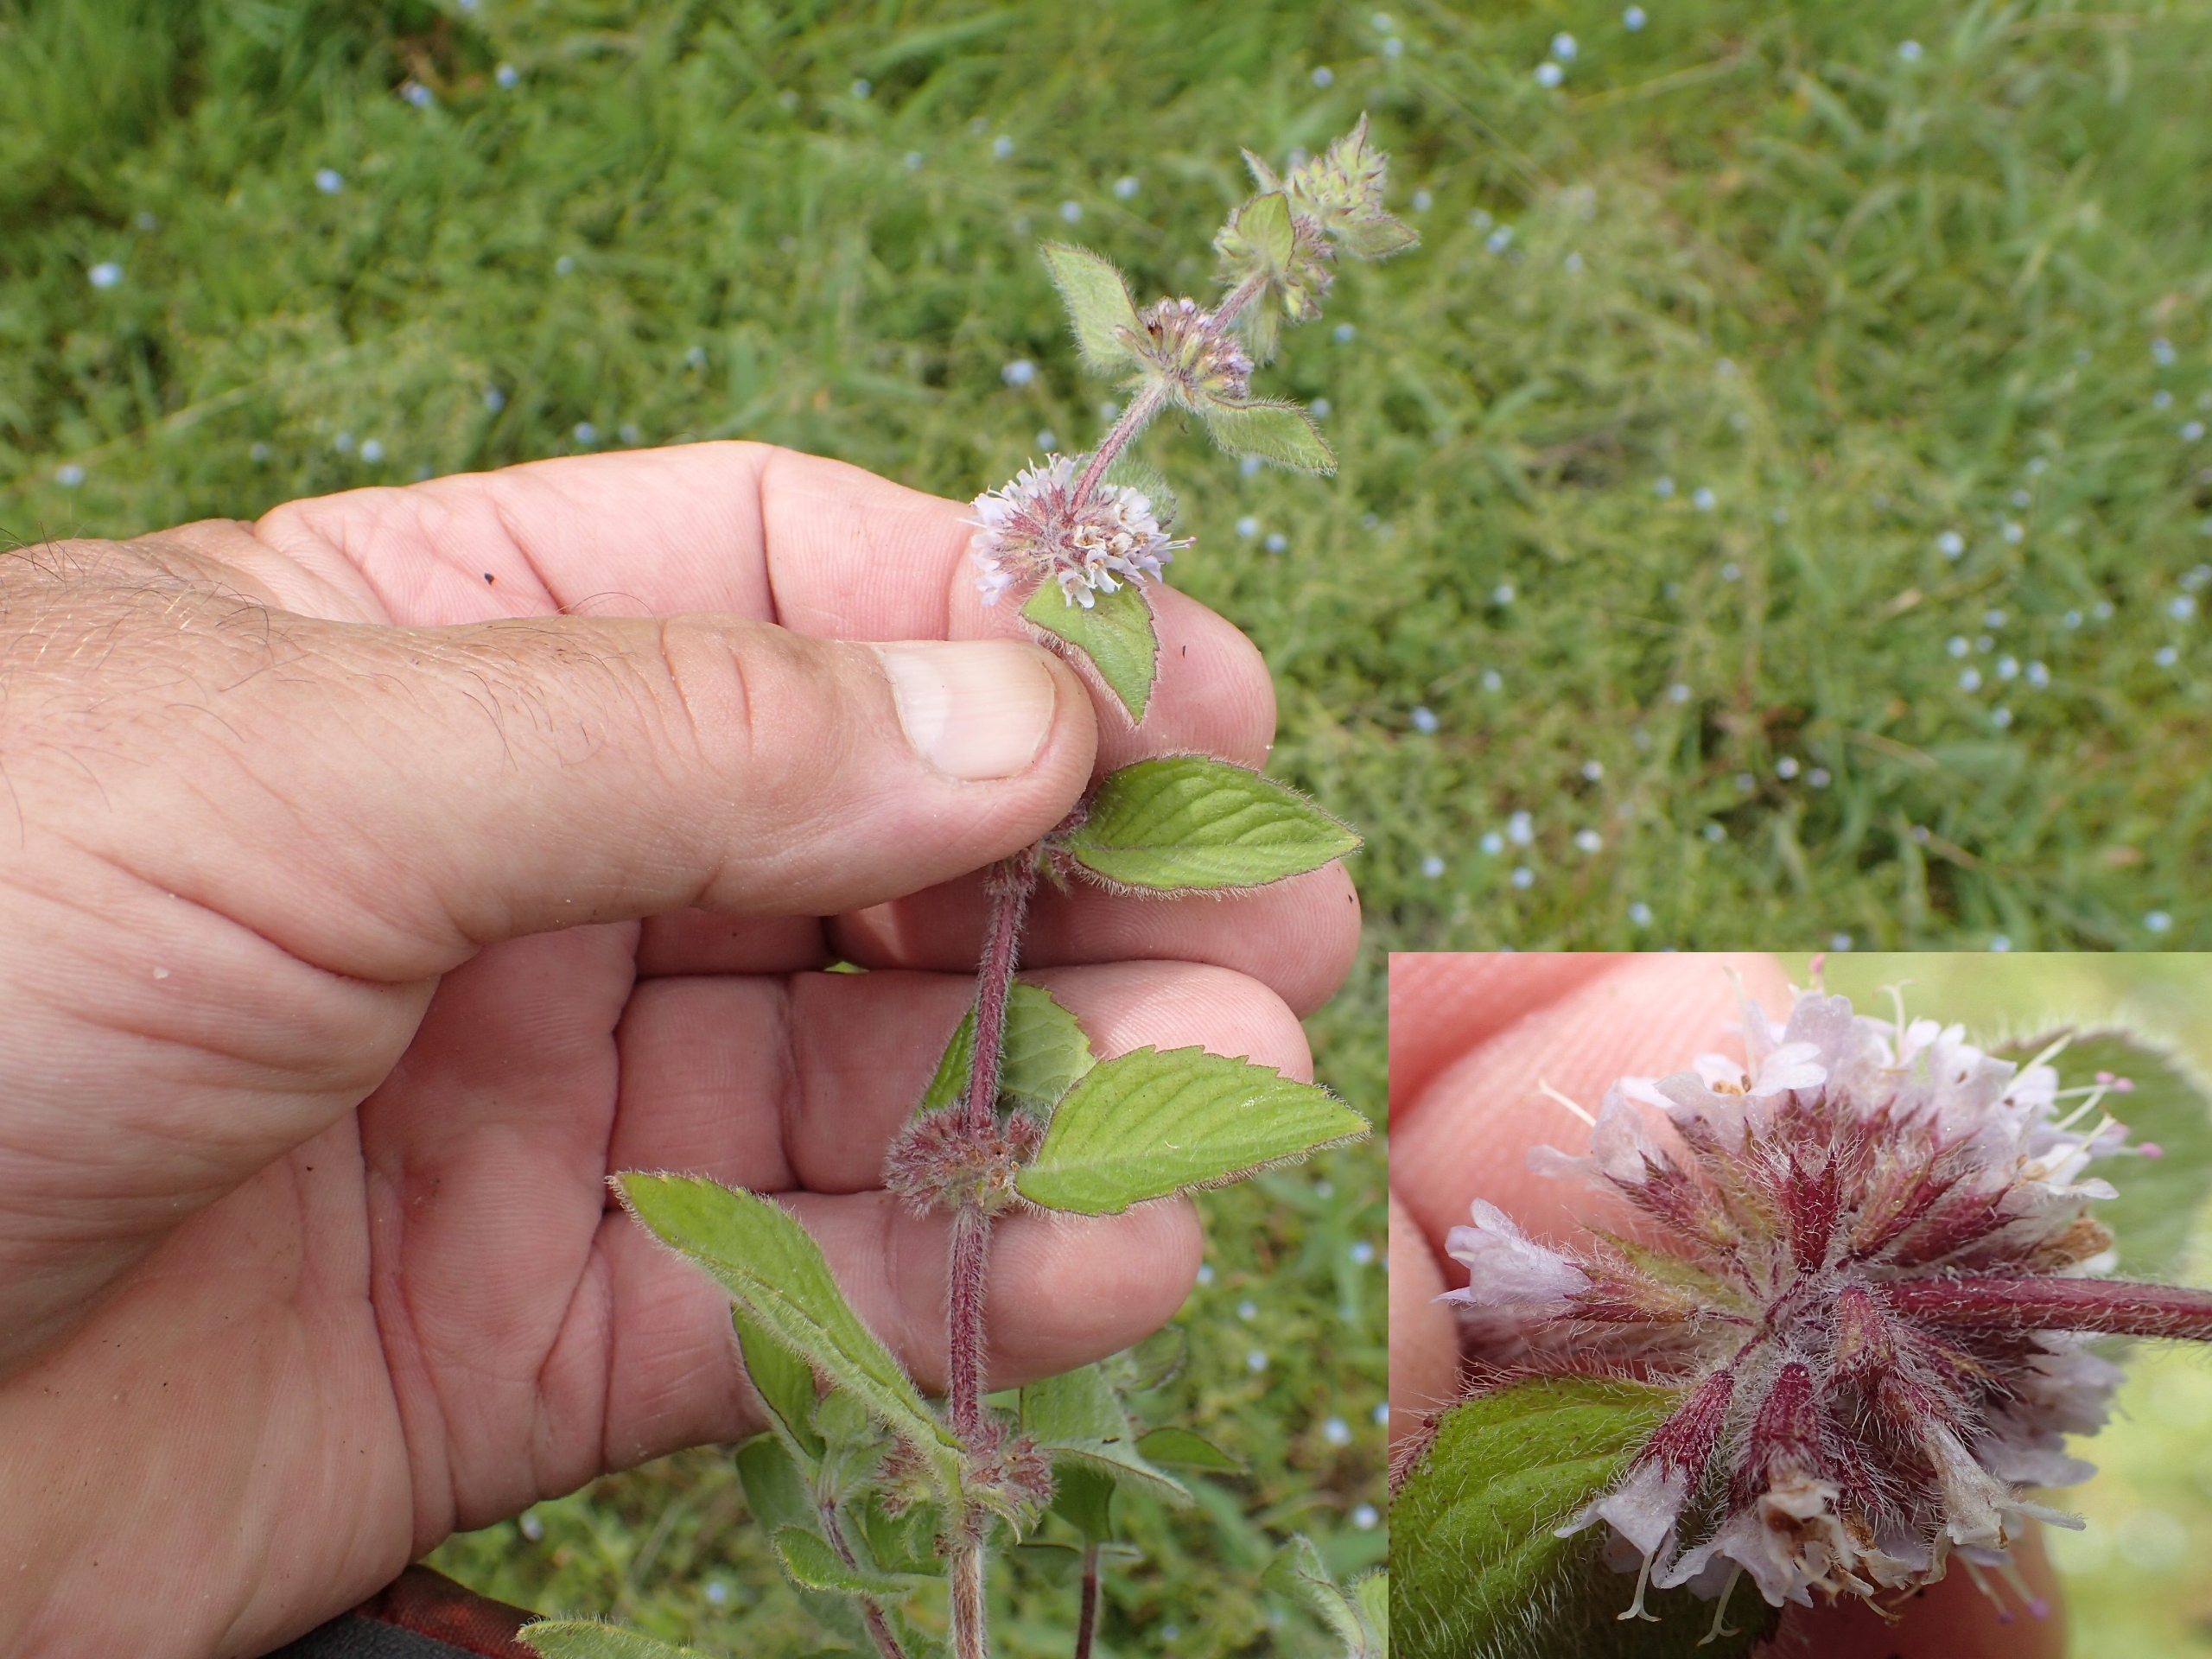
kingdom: Plantae
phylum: Tracheophyta
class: Magnoliopsida
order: Lamiales
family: Lamiaceae
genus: Mentha
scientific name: Mentha verticillata
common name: Krans-mynte
